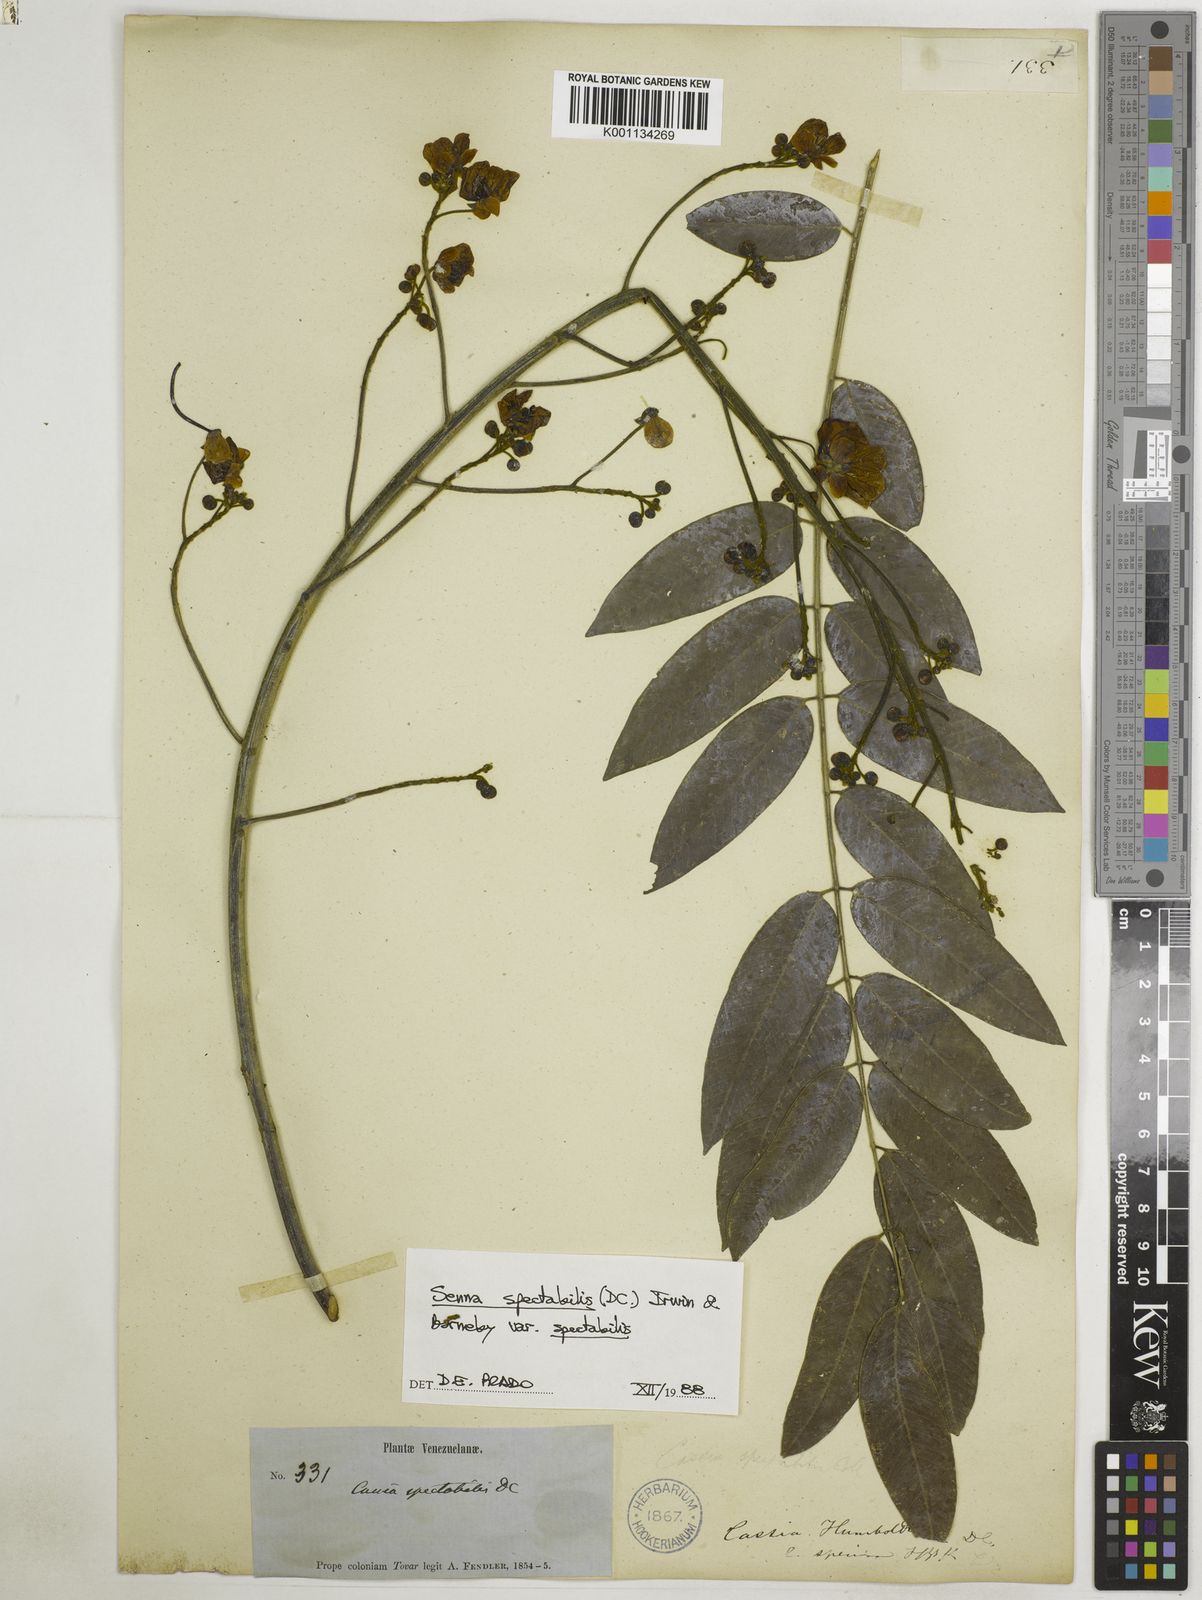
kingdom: Plantae
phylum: Tracheophyta
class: Magnoliopsida
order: Fabales
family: Fabaceae
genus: Senna
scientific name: Senna spectabilis
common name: Casia amarilla
